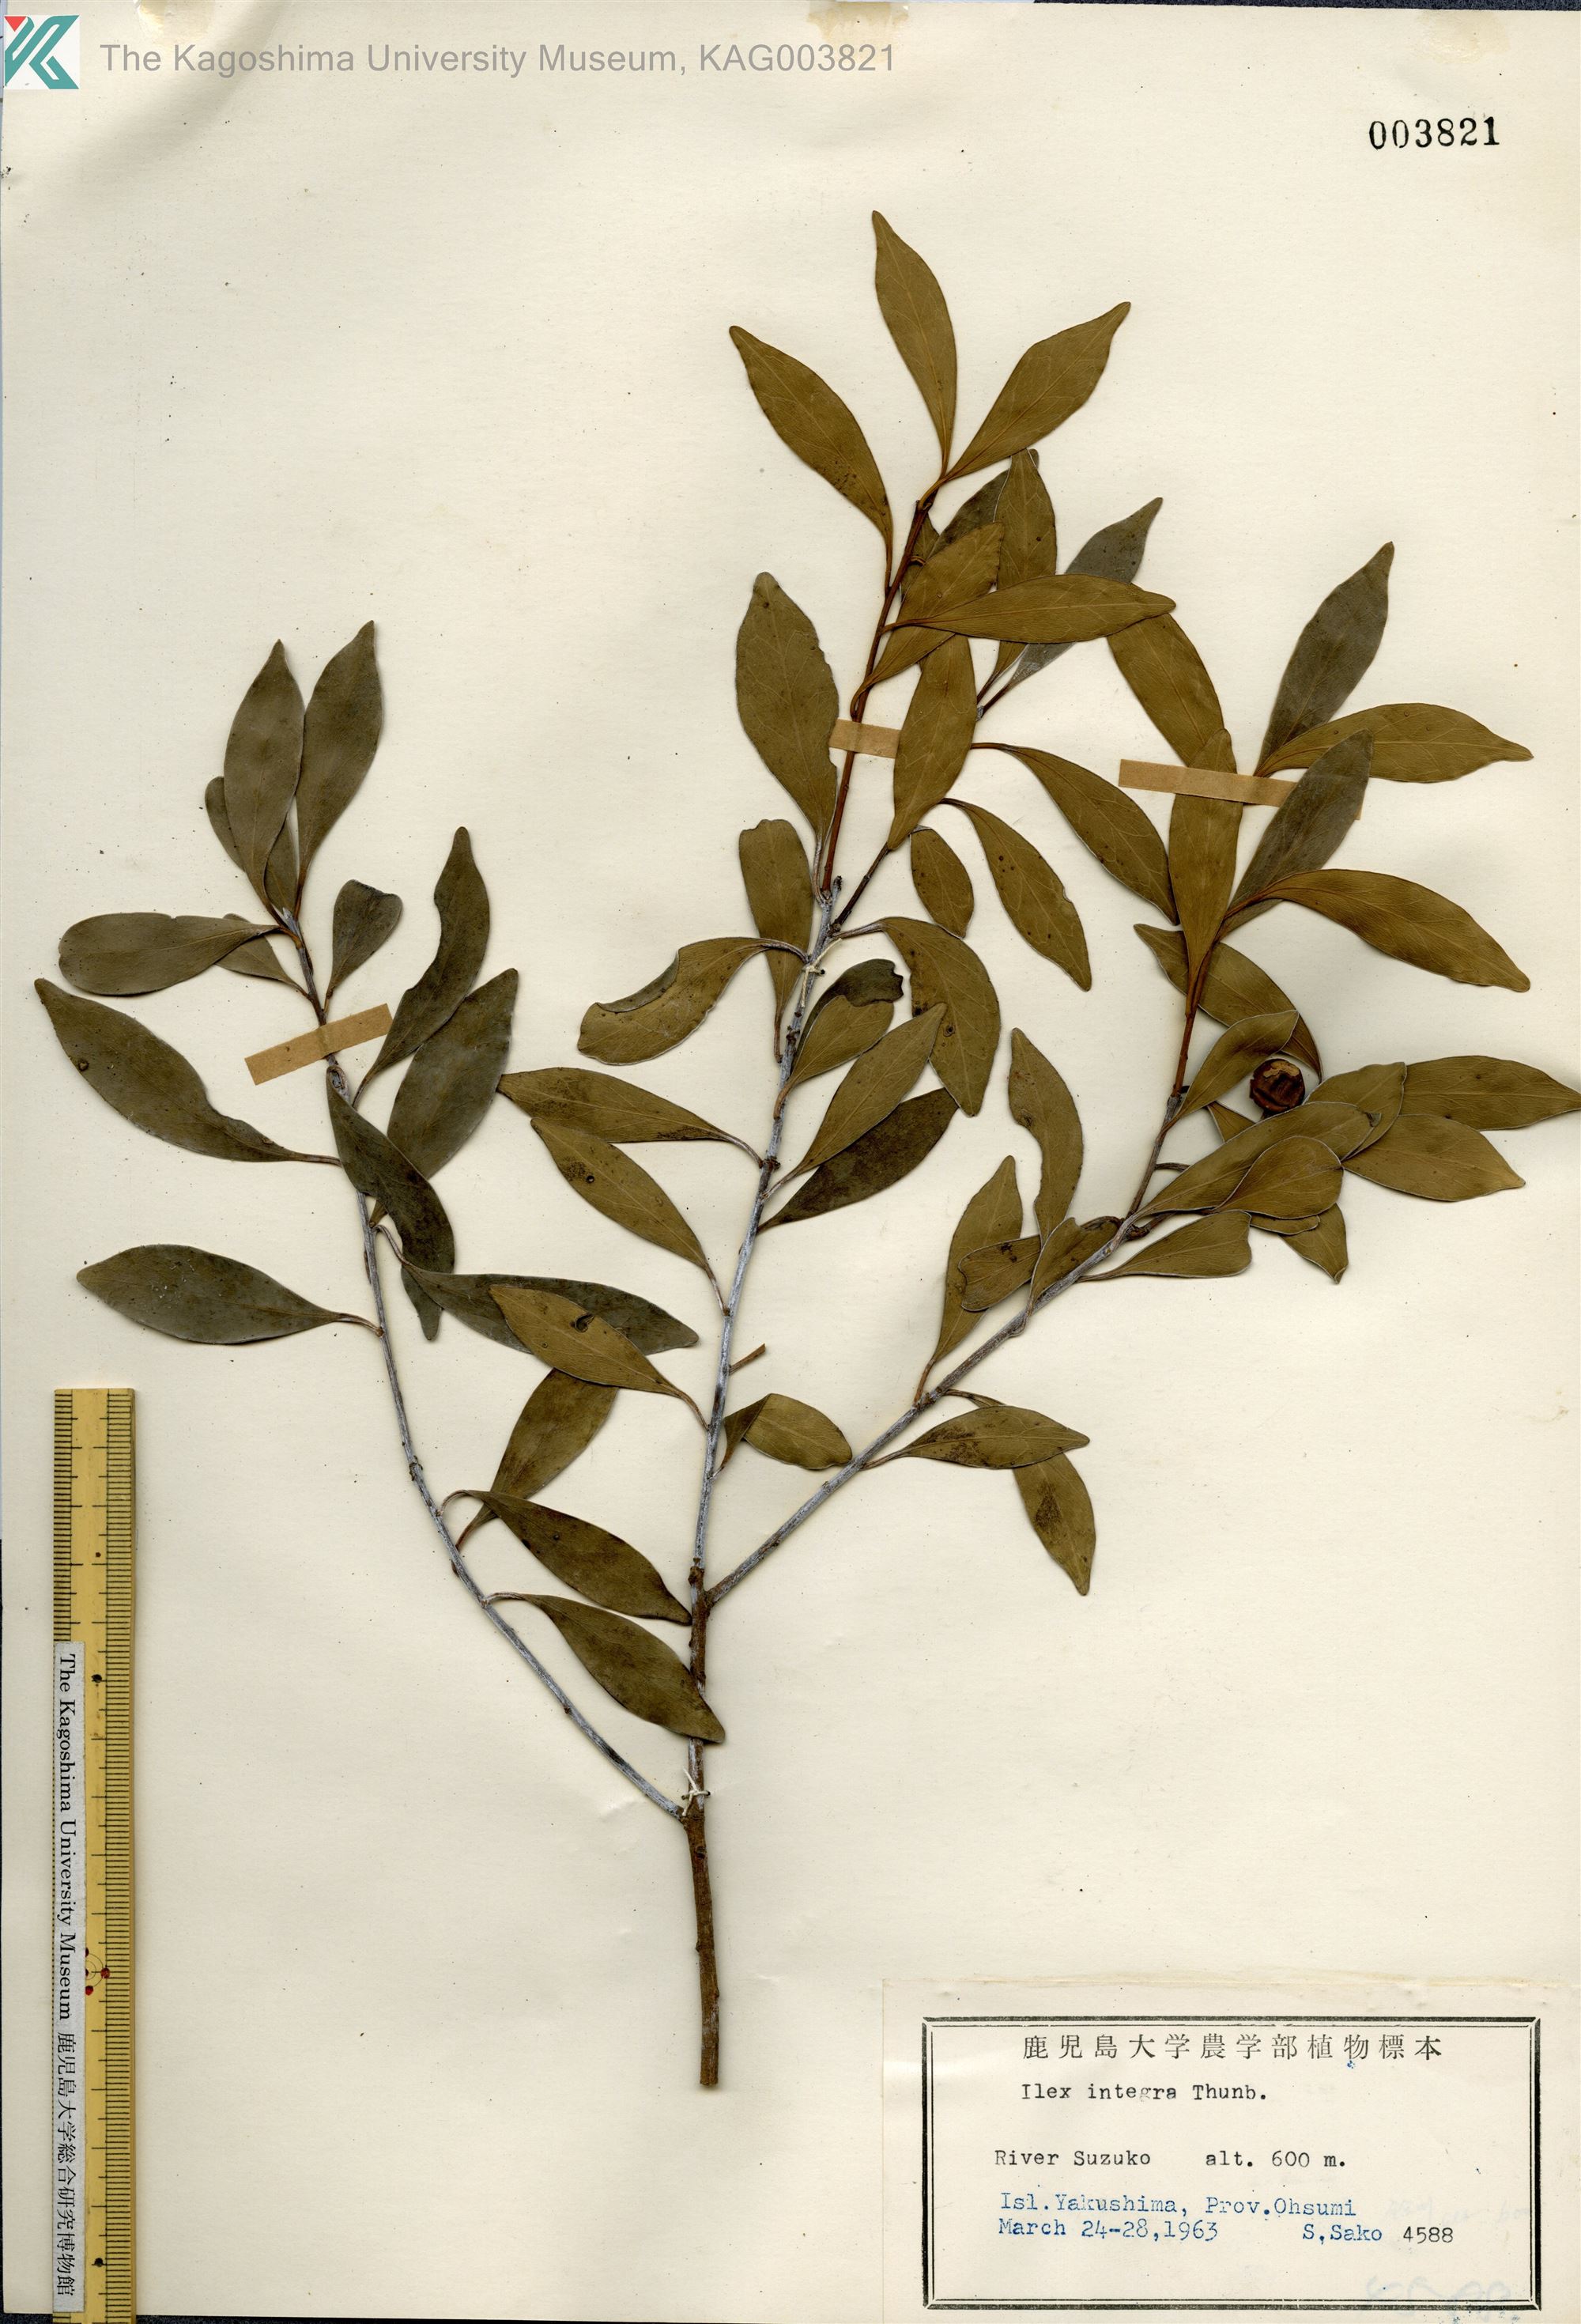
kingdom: Plantae
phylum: Tracheophyta
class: Magnoliopsida
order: Aquifoliales
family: Aquifoliaceae
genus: Ilex
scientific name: Ilex integra
